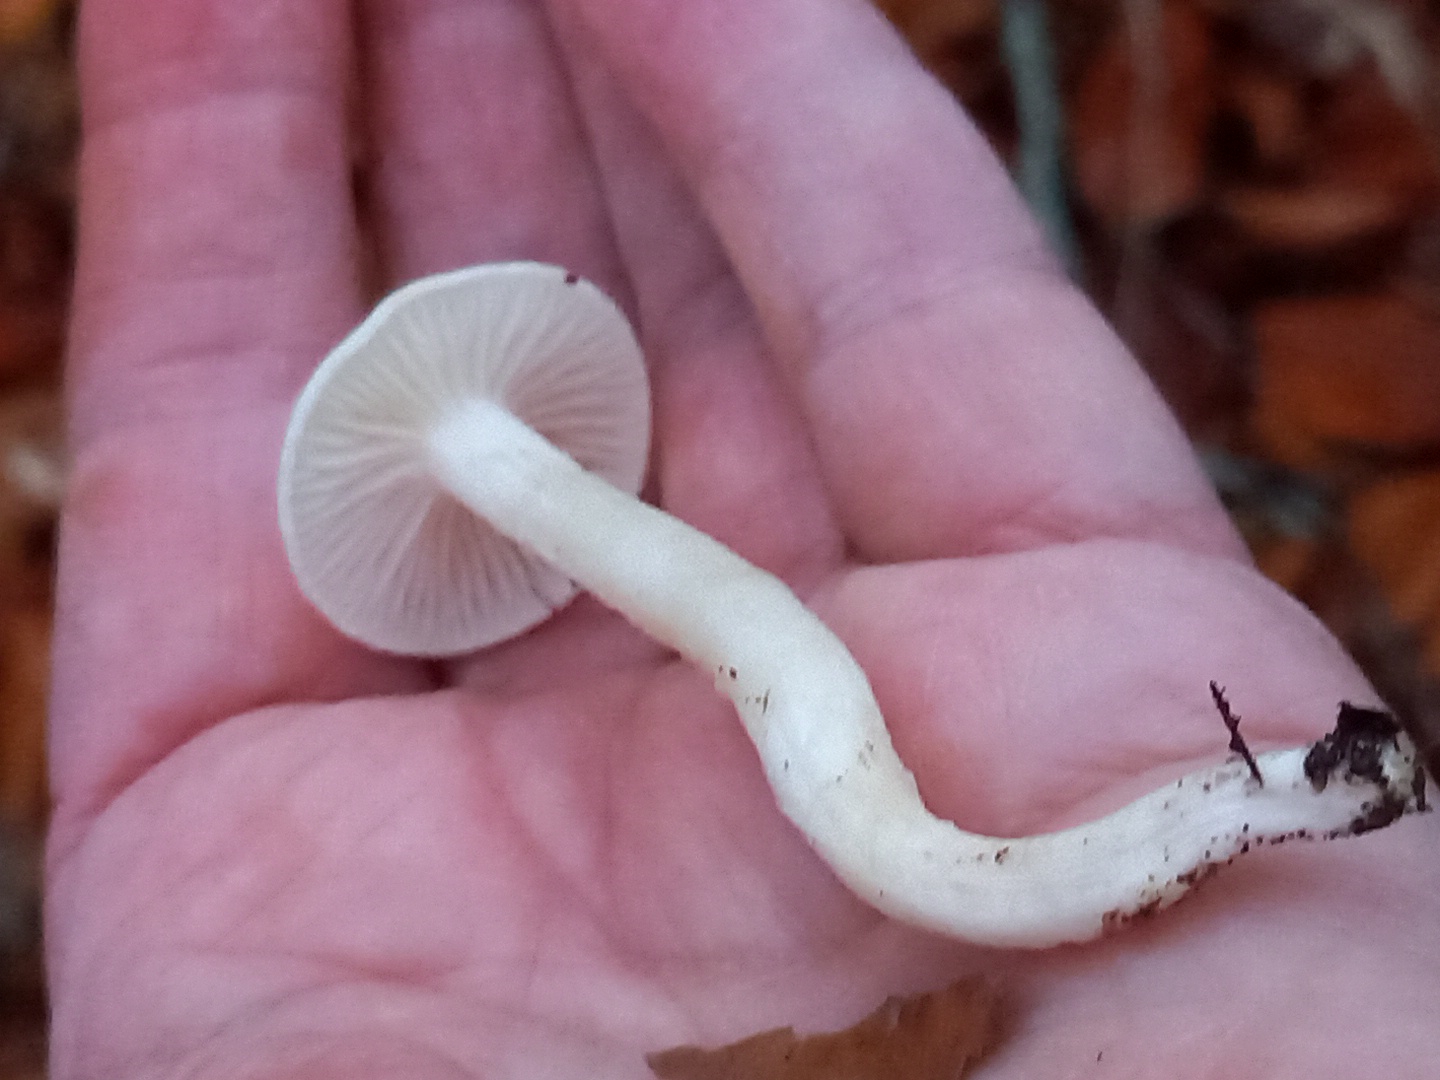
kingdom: Fungi
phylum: Basidiomycota
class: Agaricomycetes
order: Agaricales
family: Hygrophoraceae
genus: Hygrophorus
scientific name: Hygrophorus eburneus
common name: elfenbens-sneglehat
